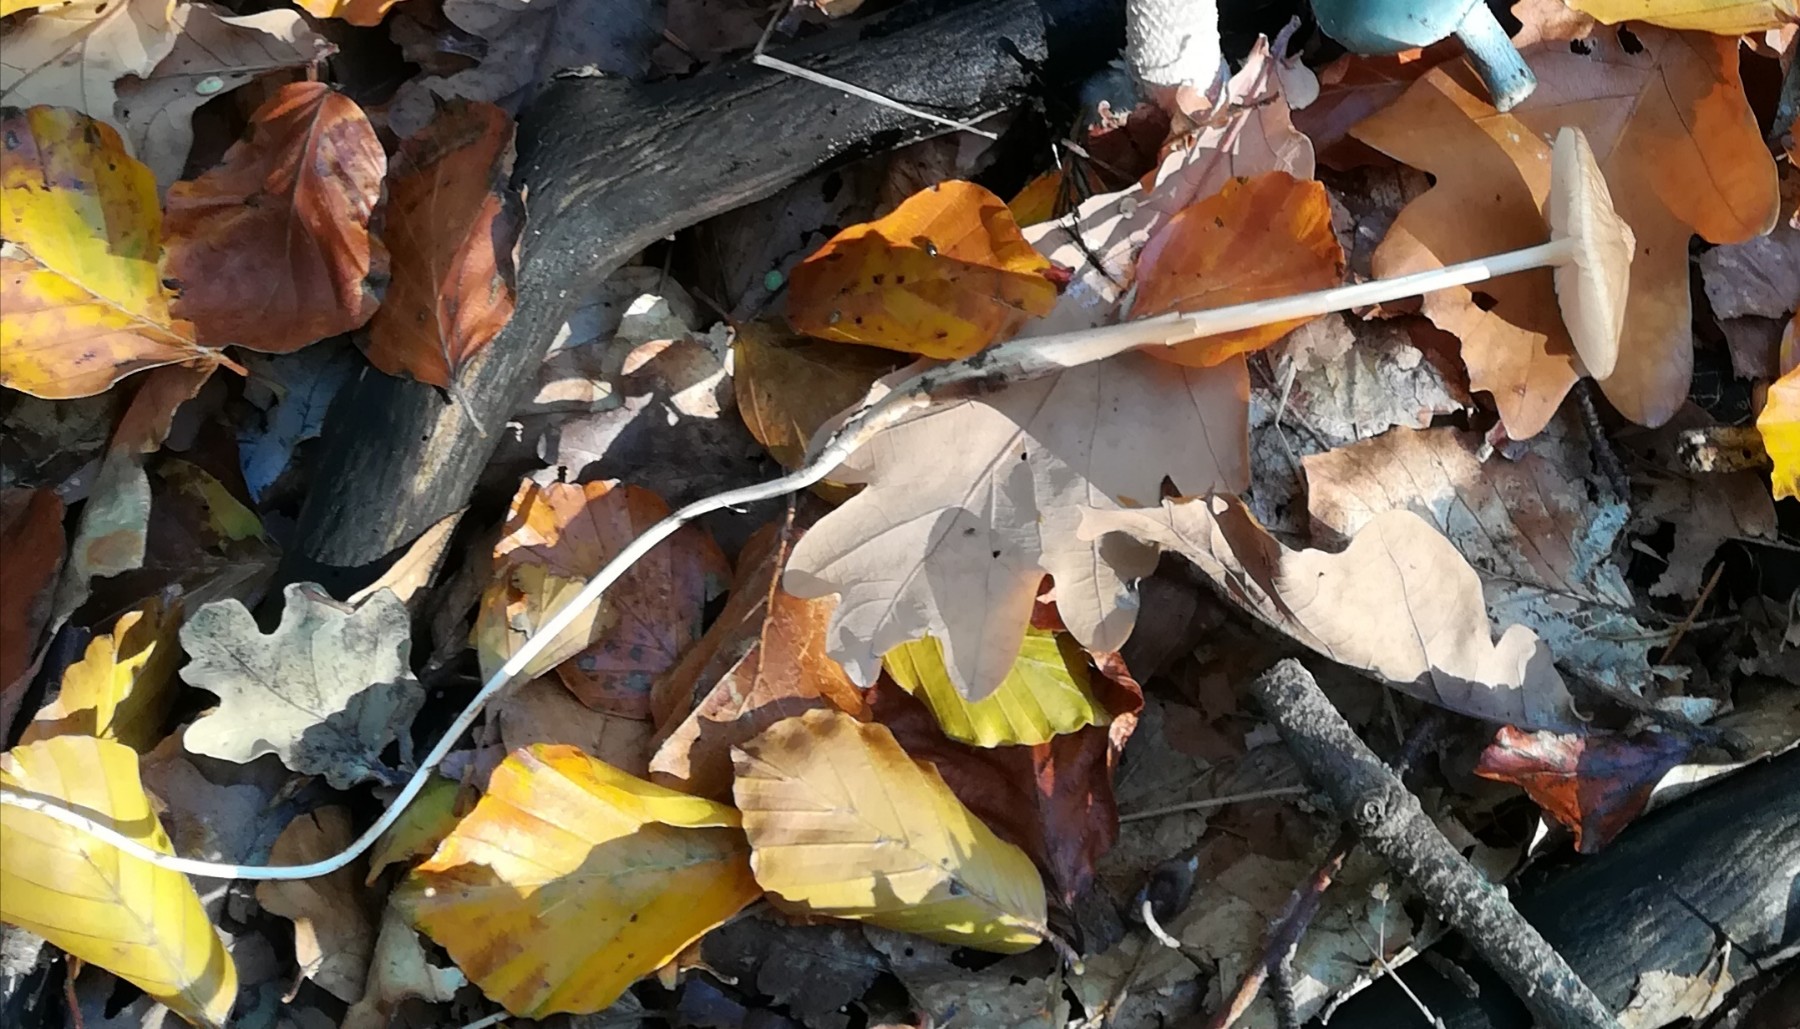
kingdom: Fungi
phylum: Basidiomycota
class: Agaricomycetes
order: Agaricales
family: Physalacriaceae
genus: Hymenopellis
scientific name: Hymenopellis radicata
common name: almindelig pælerodshat
